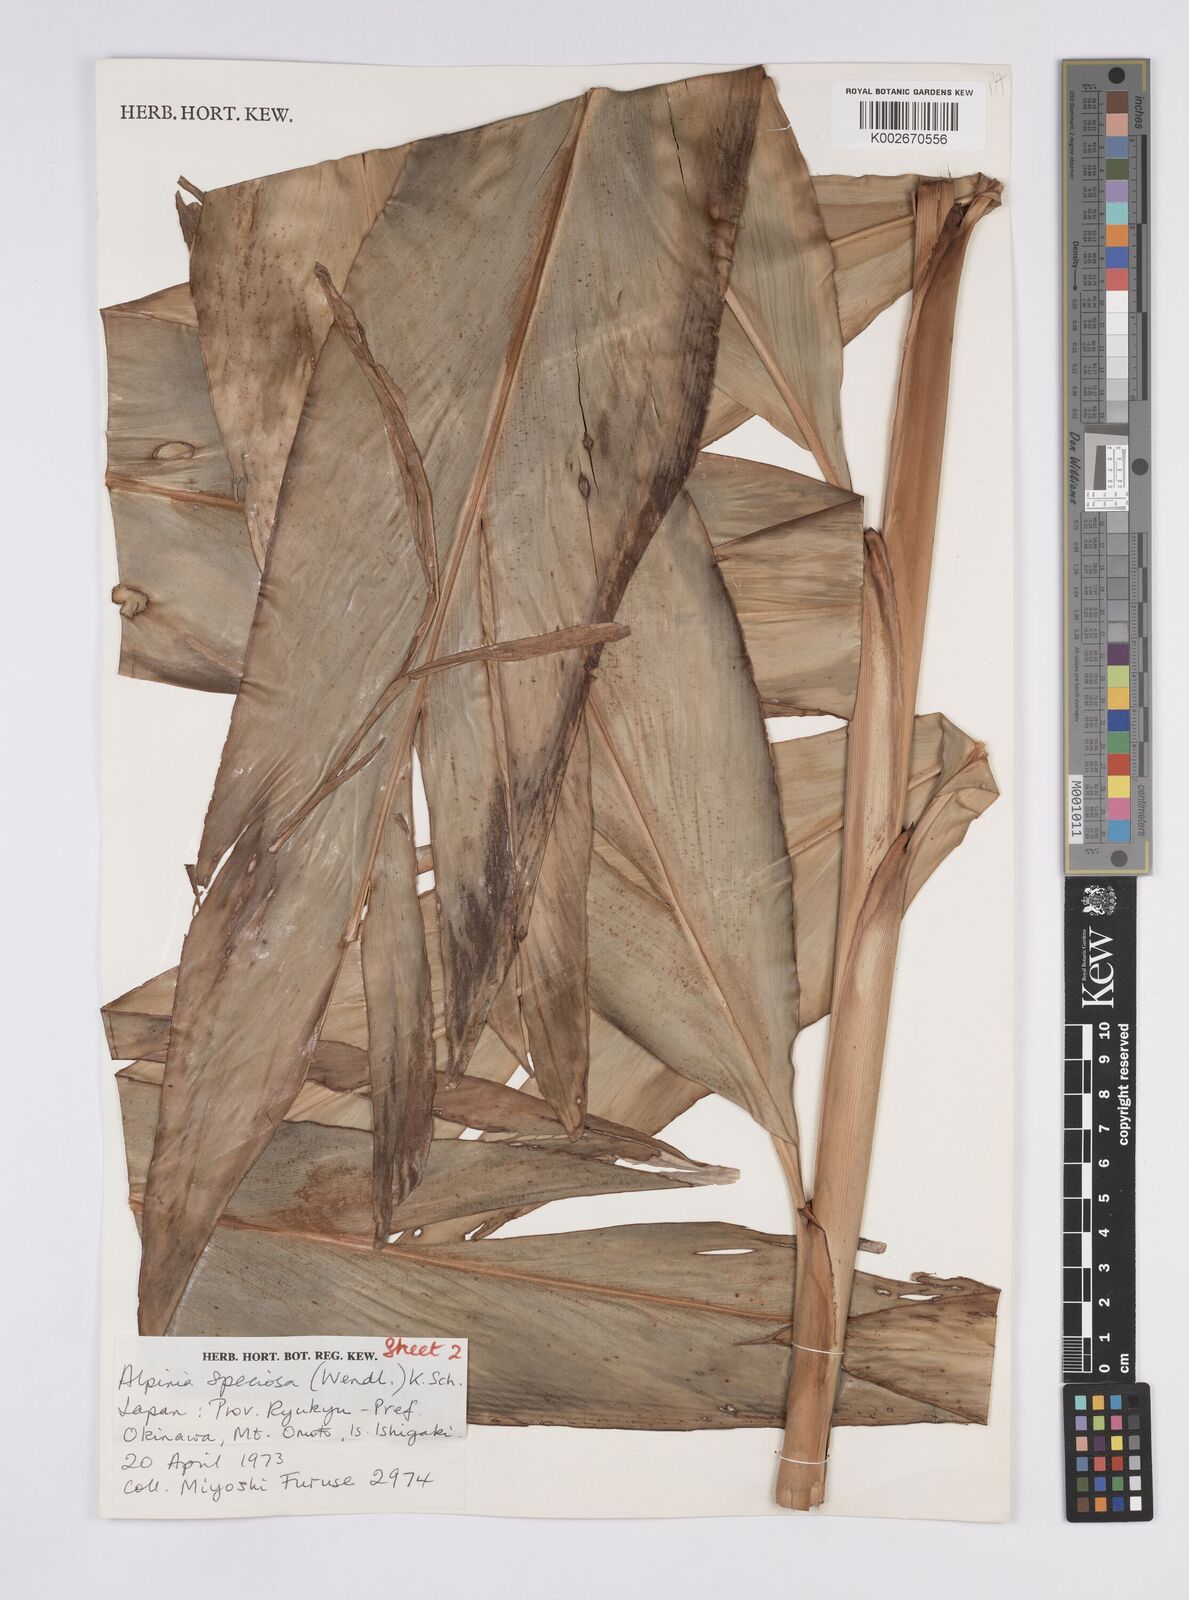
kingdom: Plantae
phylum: Tracheophyta
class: Liliopsida
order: Zingiberales
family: Zingiberaceae
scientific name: Zingiberaceae
